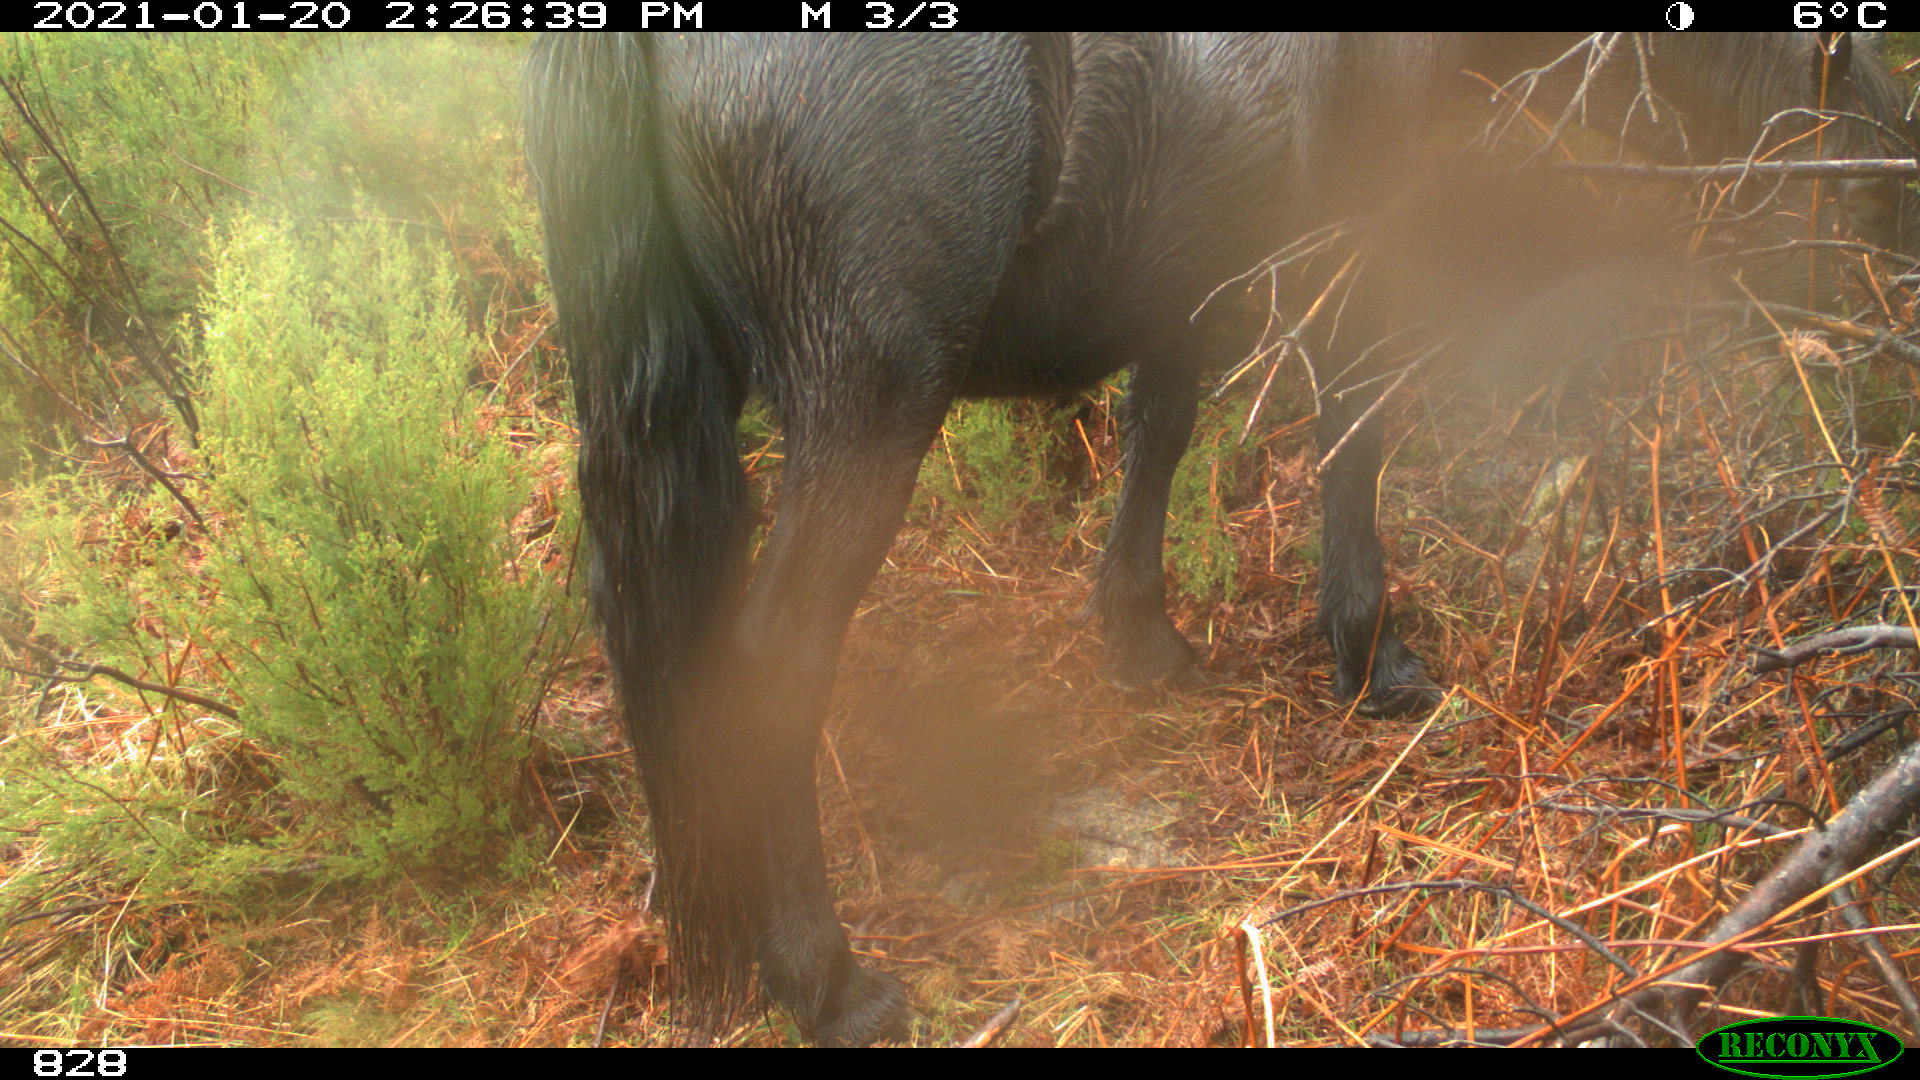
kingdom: Animalia
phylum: Chordata
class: Mammalia
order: Perissodactyla
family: Equidae
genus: Equus
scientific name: Equus caballus
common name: Horse
